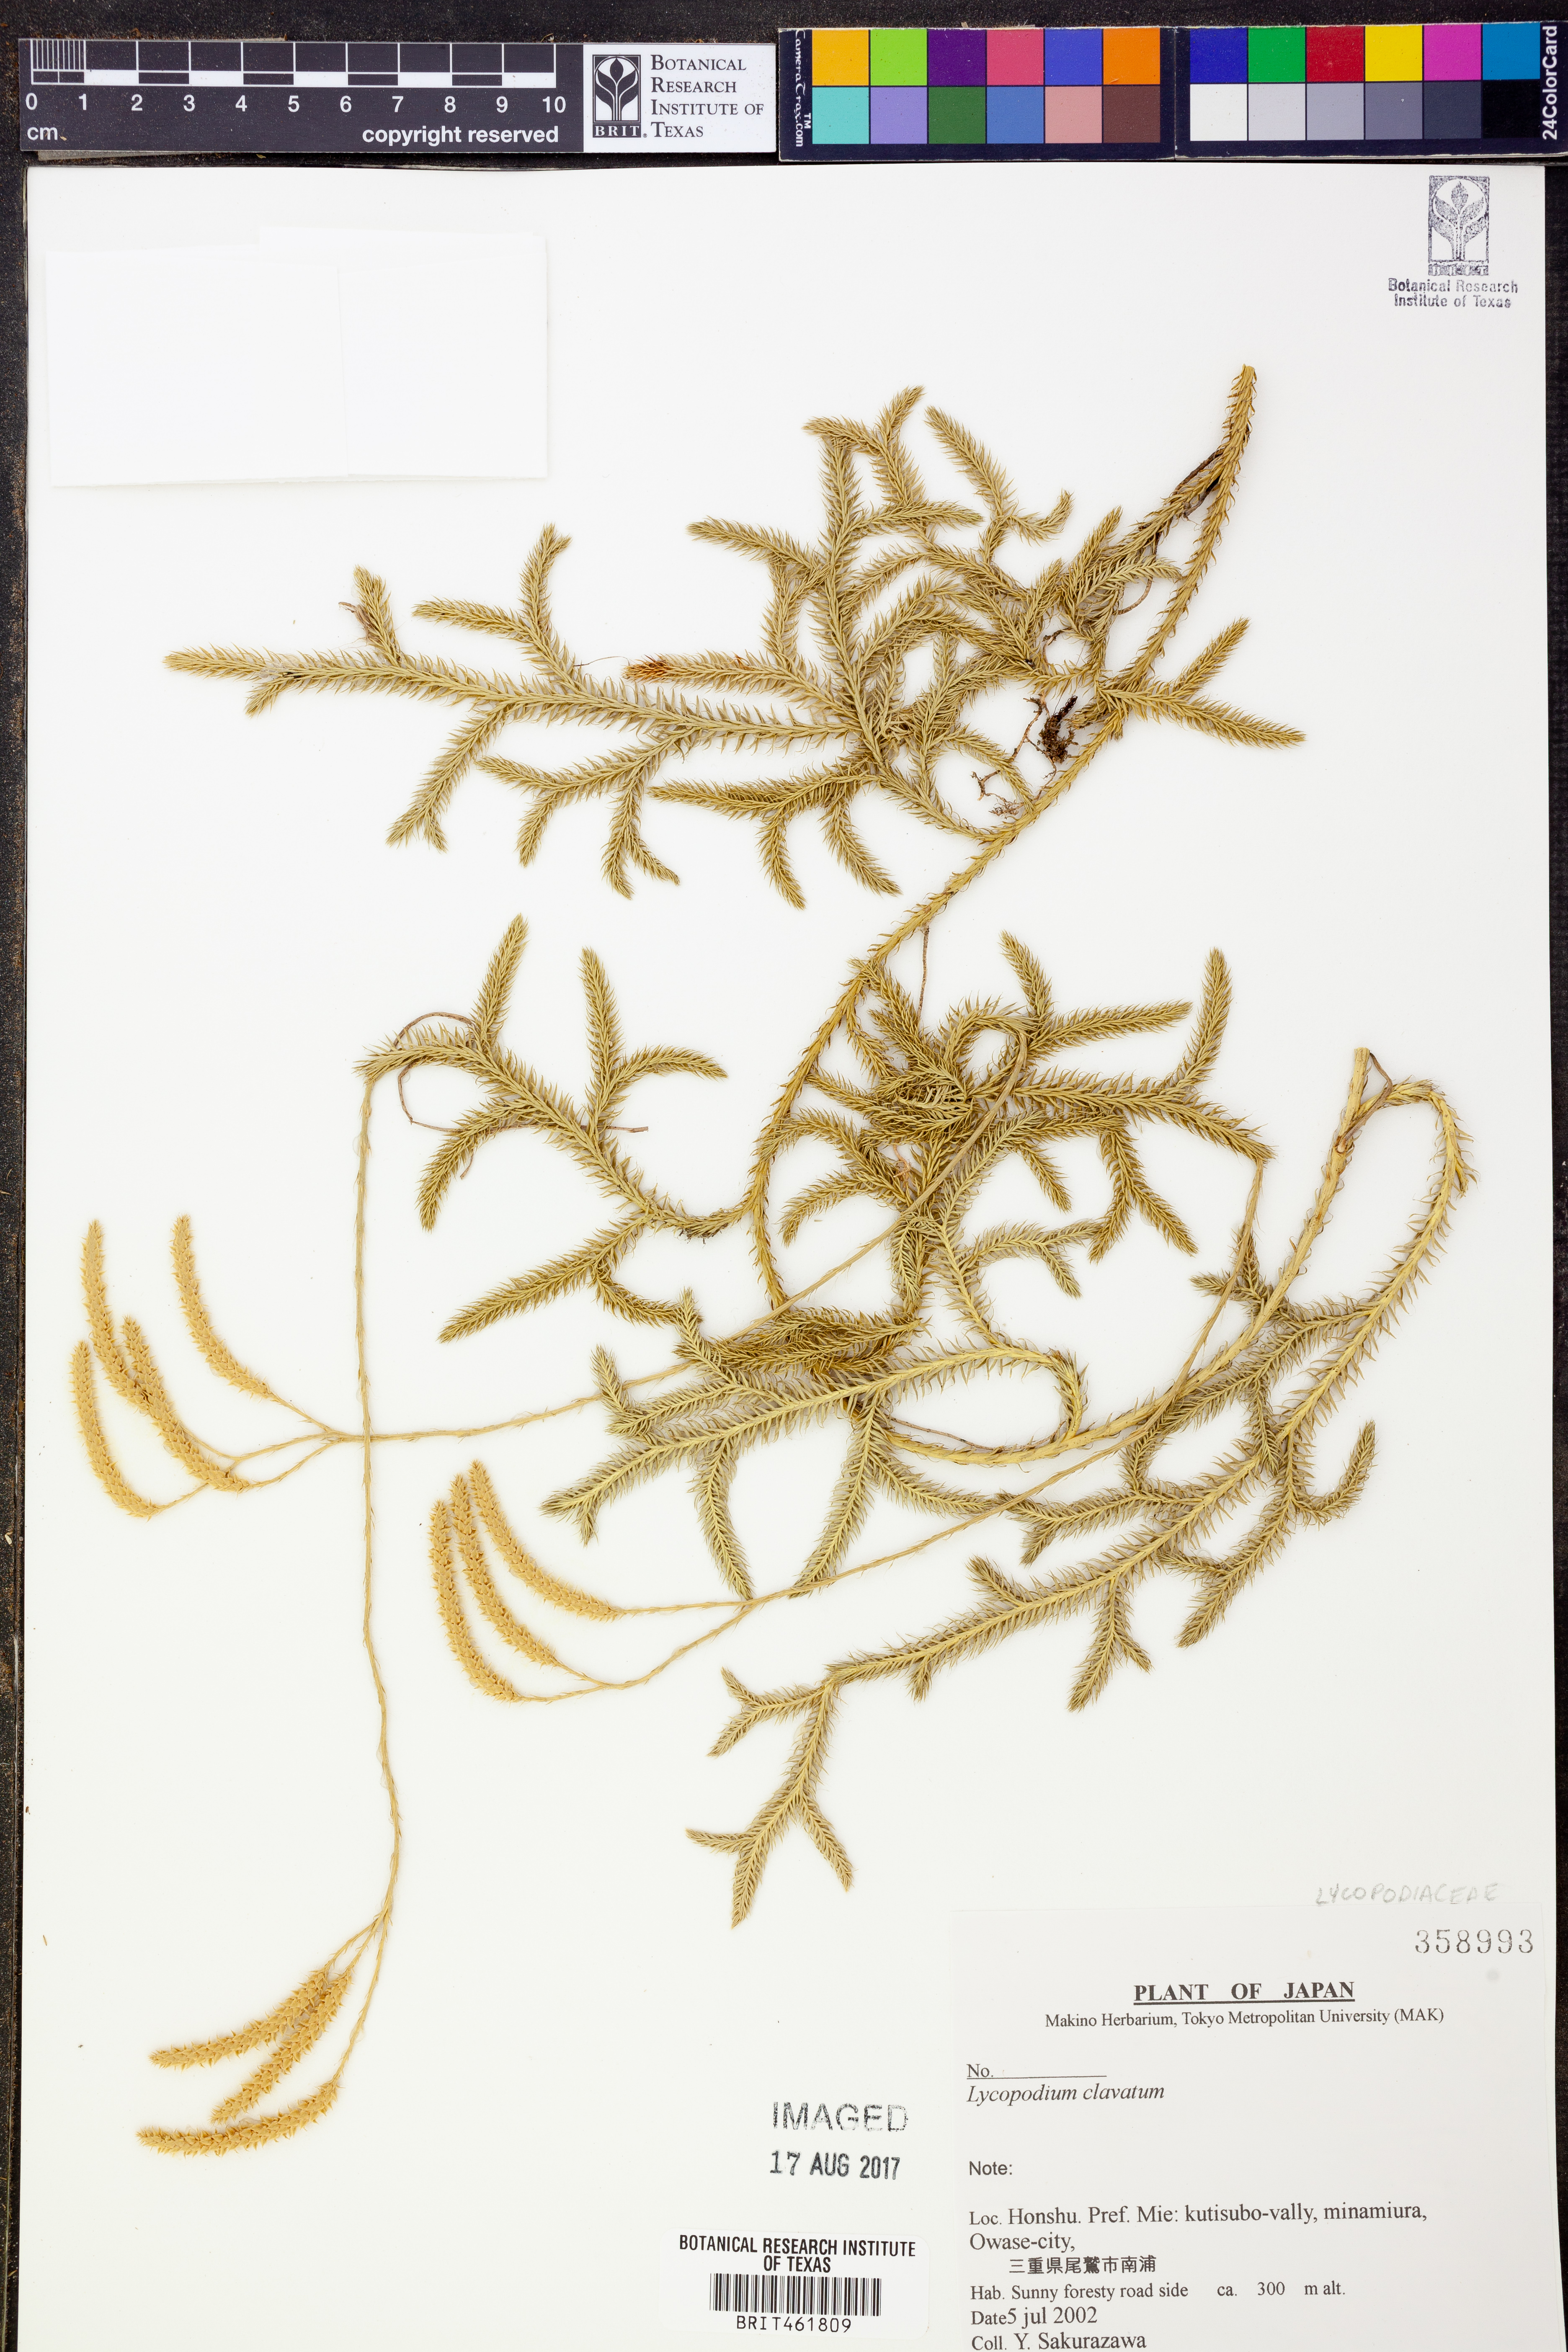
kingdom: Plantae
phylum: Tracheophyta
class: Lycopodiopsida
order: Lycopodiales
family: Lycopodiaceae
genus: Lycopodium
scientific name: Lycopodium clavatum
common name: Stag's-horn clubmoss
